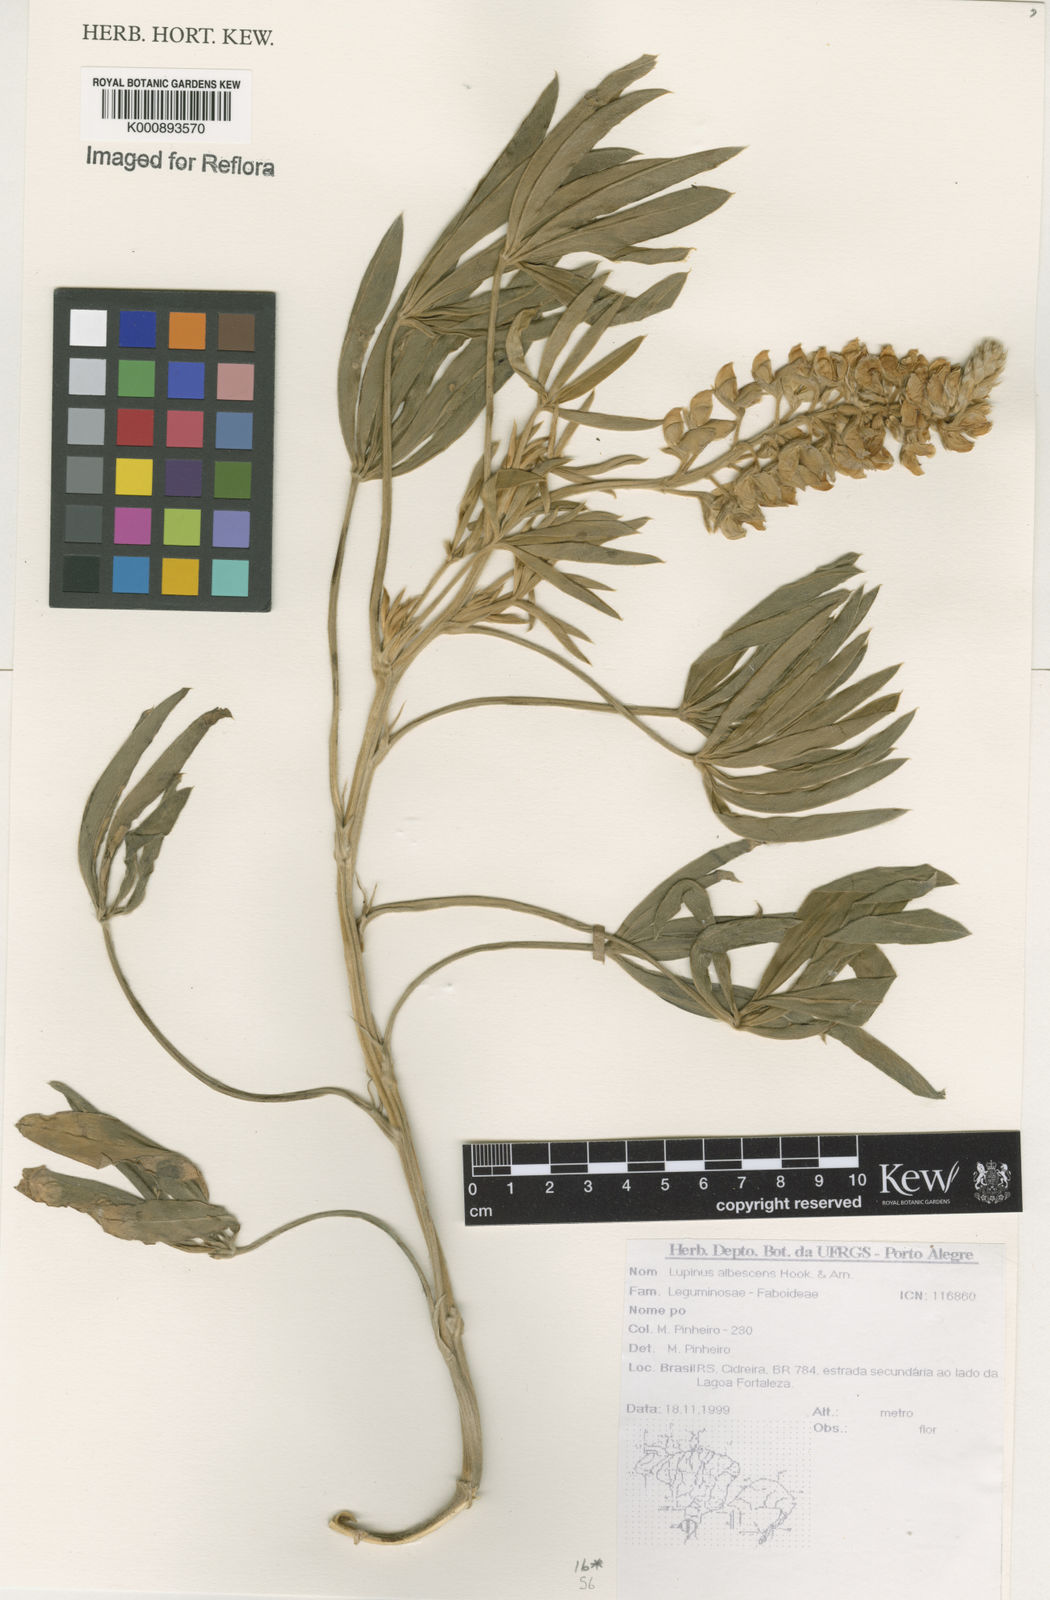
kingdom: Plantae
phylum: Tracheophyta
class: Magnoliopsida
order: Fabales
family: Fabaceae
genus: Lupinus
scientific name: Lupinus albescens
